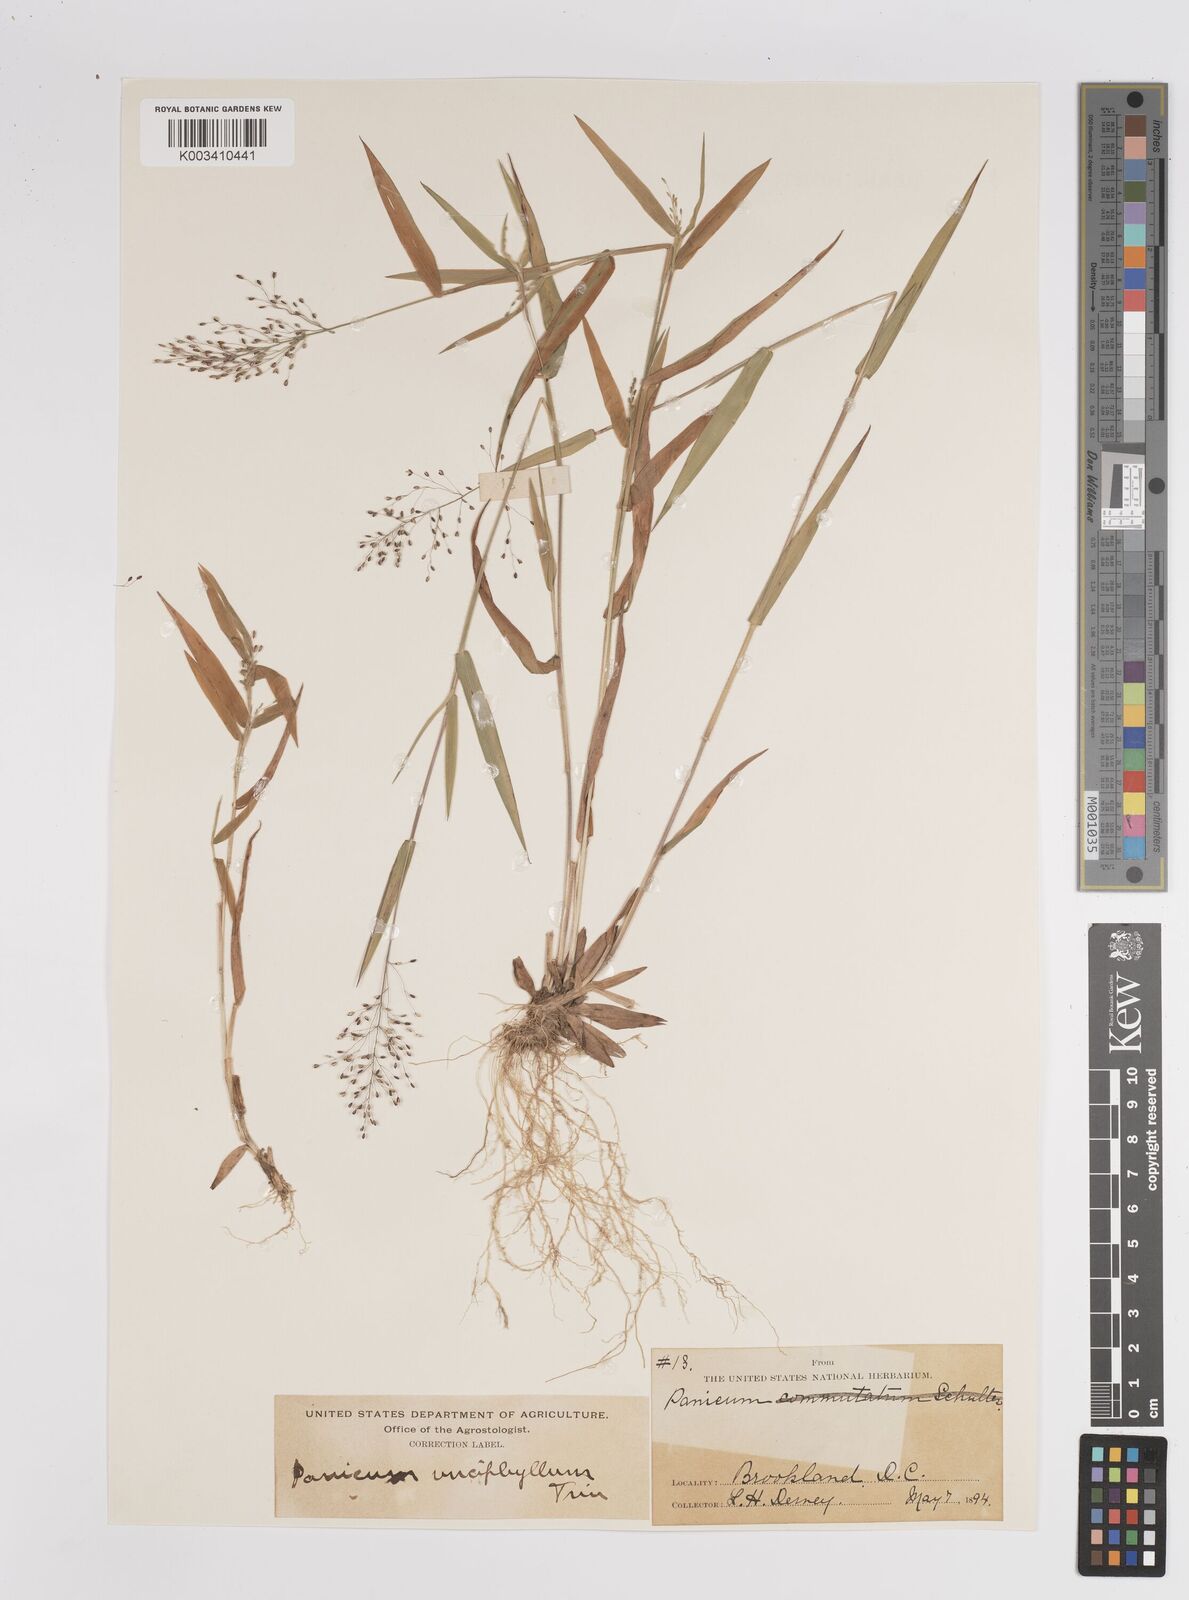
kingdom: Plantae
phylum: Tracheophyta
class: Liliopsida
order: Poales
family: Poaceae
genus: Dichanthelium
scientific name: Dichanthelium ensifolium
